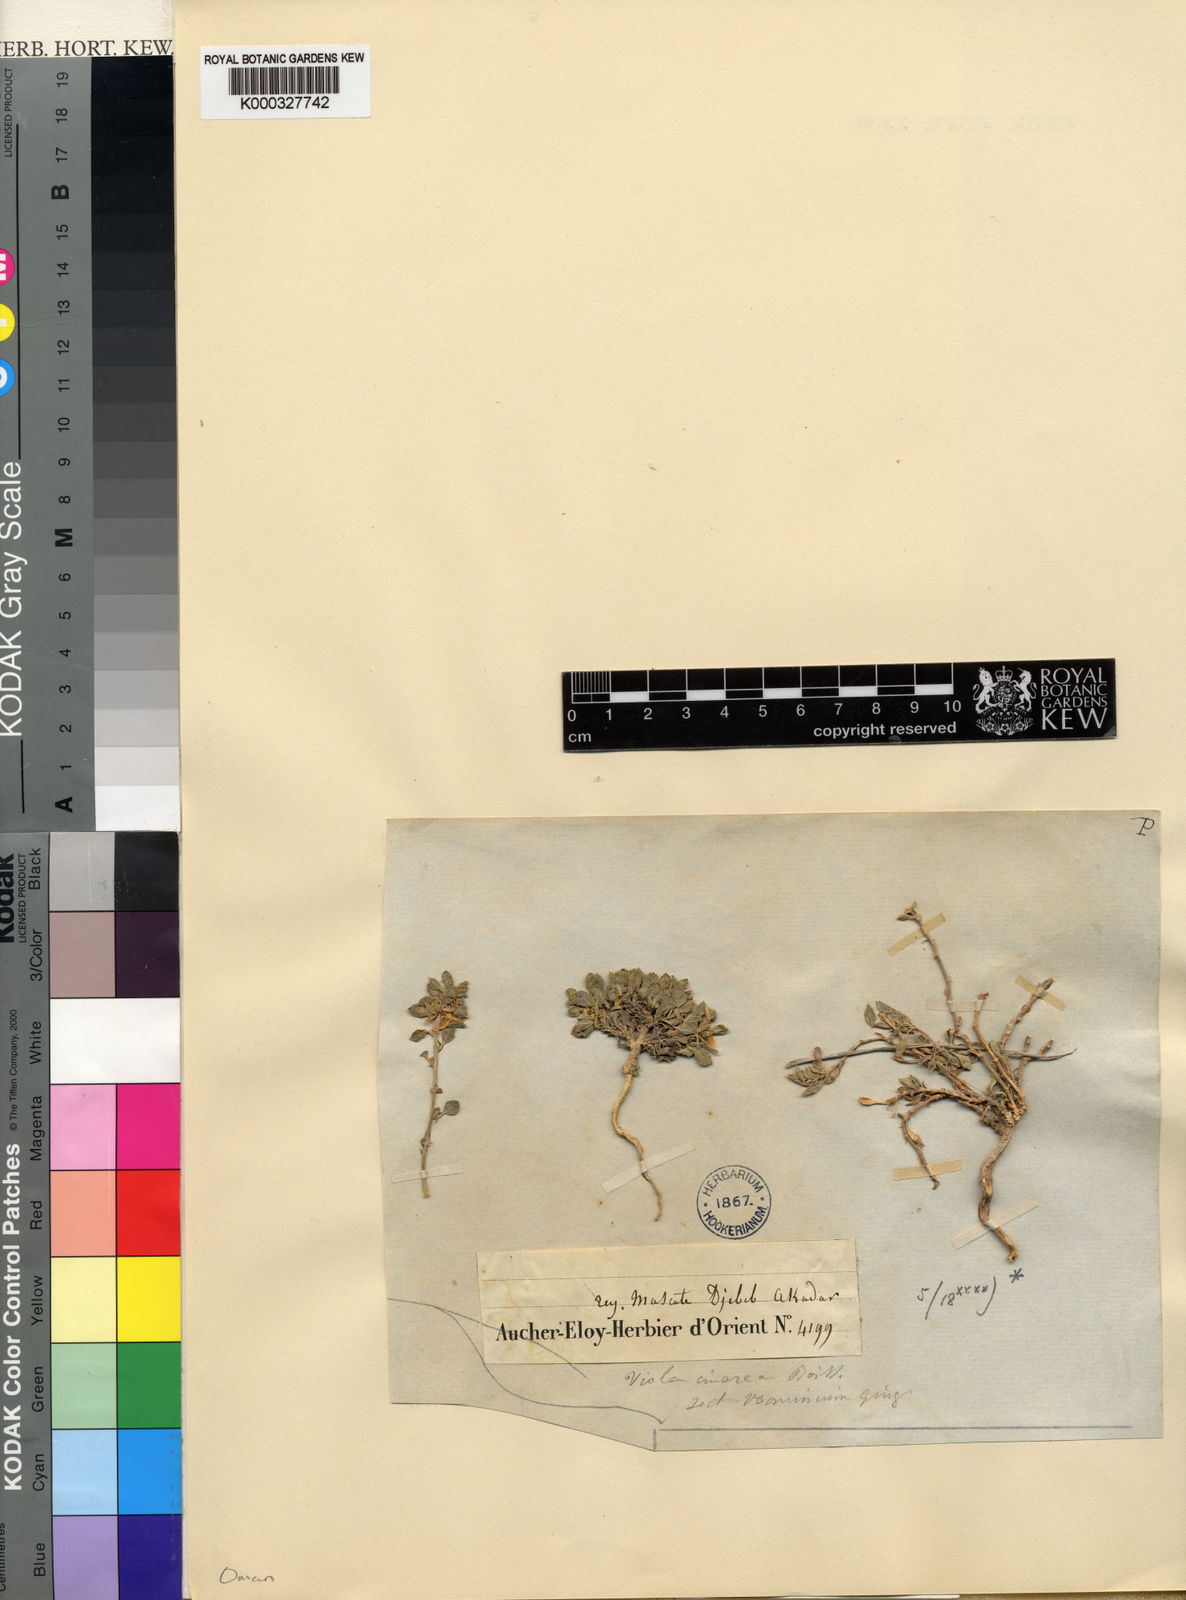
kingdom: Plantae
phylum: Tracheophyta
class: Magnoliopsida
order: Malpighiales
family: Violaceae
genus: Viola
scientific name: Viola cinerea
